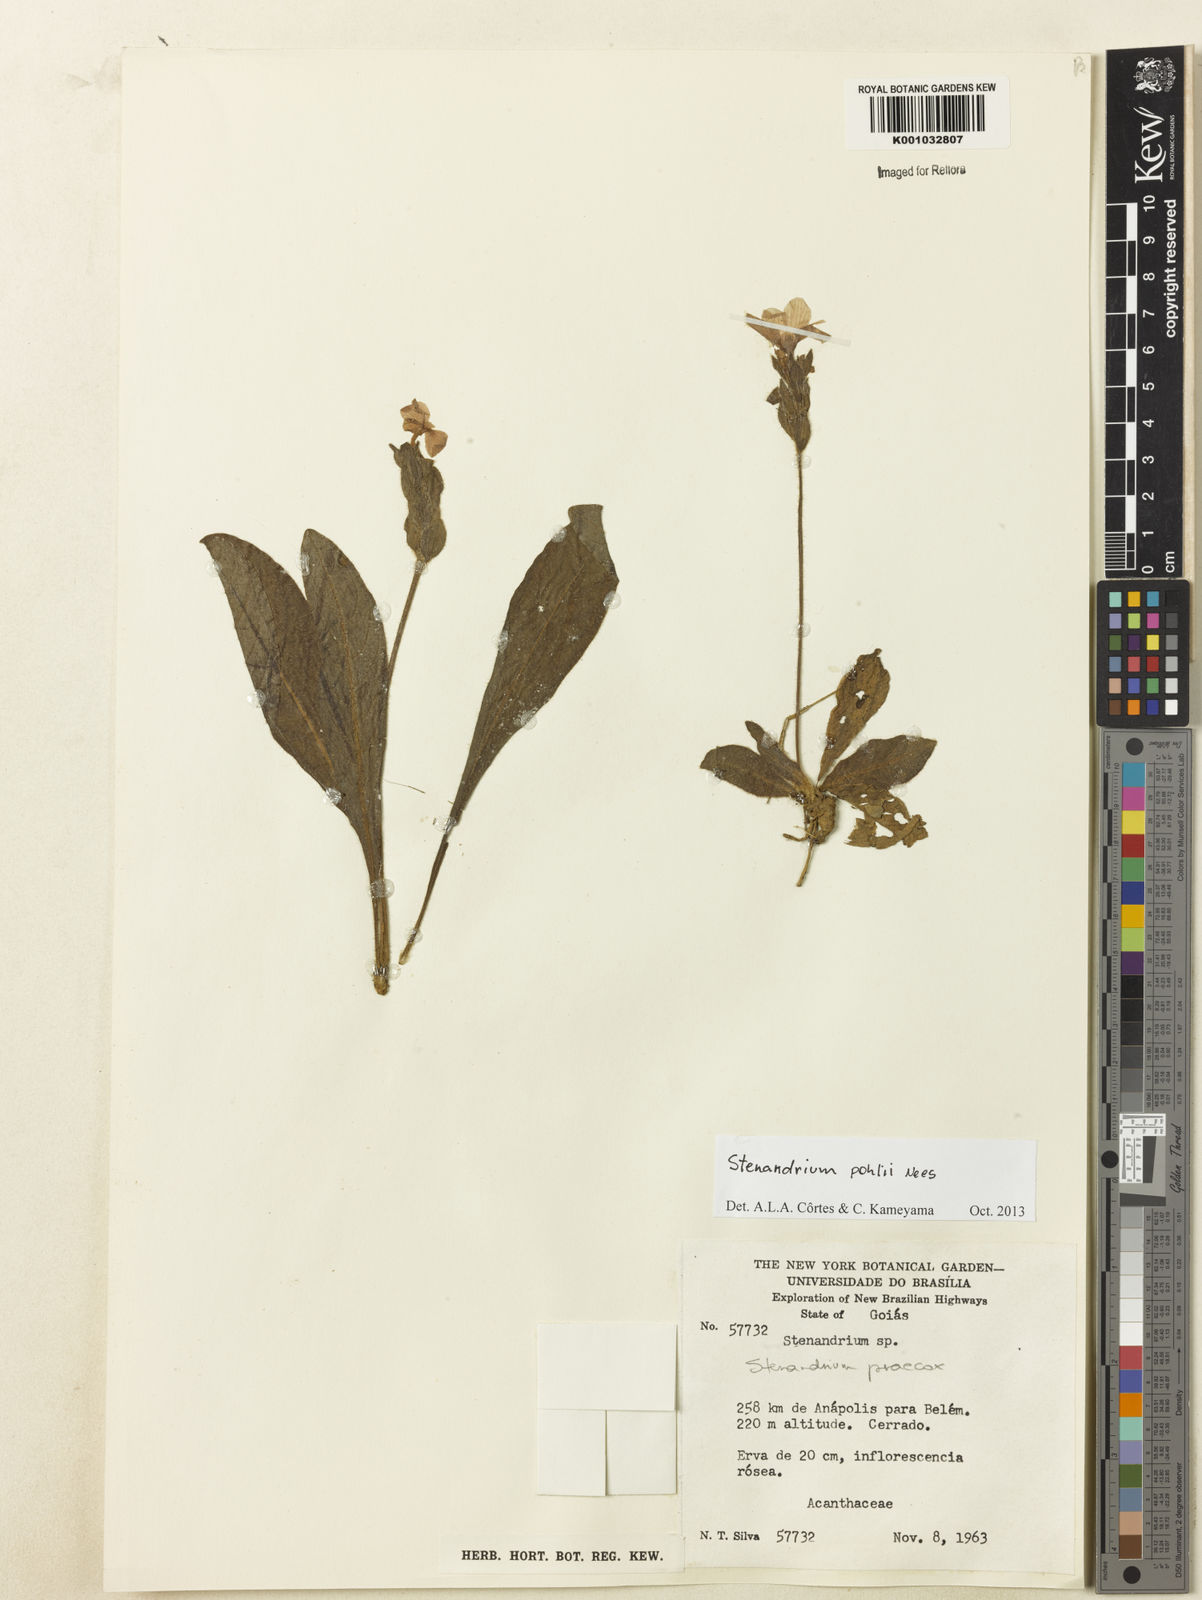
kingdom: Plantae
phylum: Tracheophyta
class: Magnoliopsida
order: Lamiales
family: Acanthaceae
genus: Stenandrium
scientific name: Stenandrium pohlii
